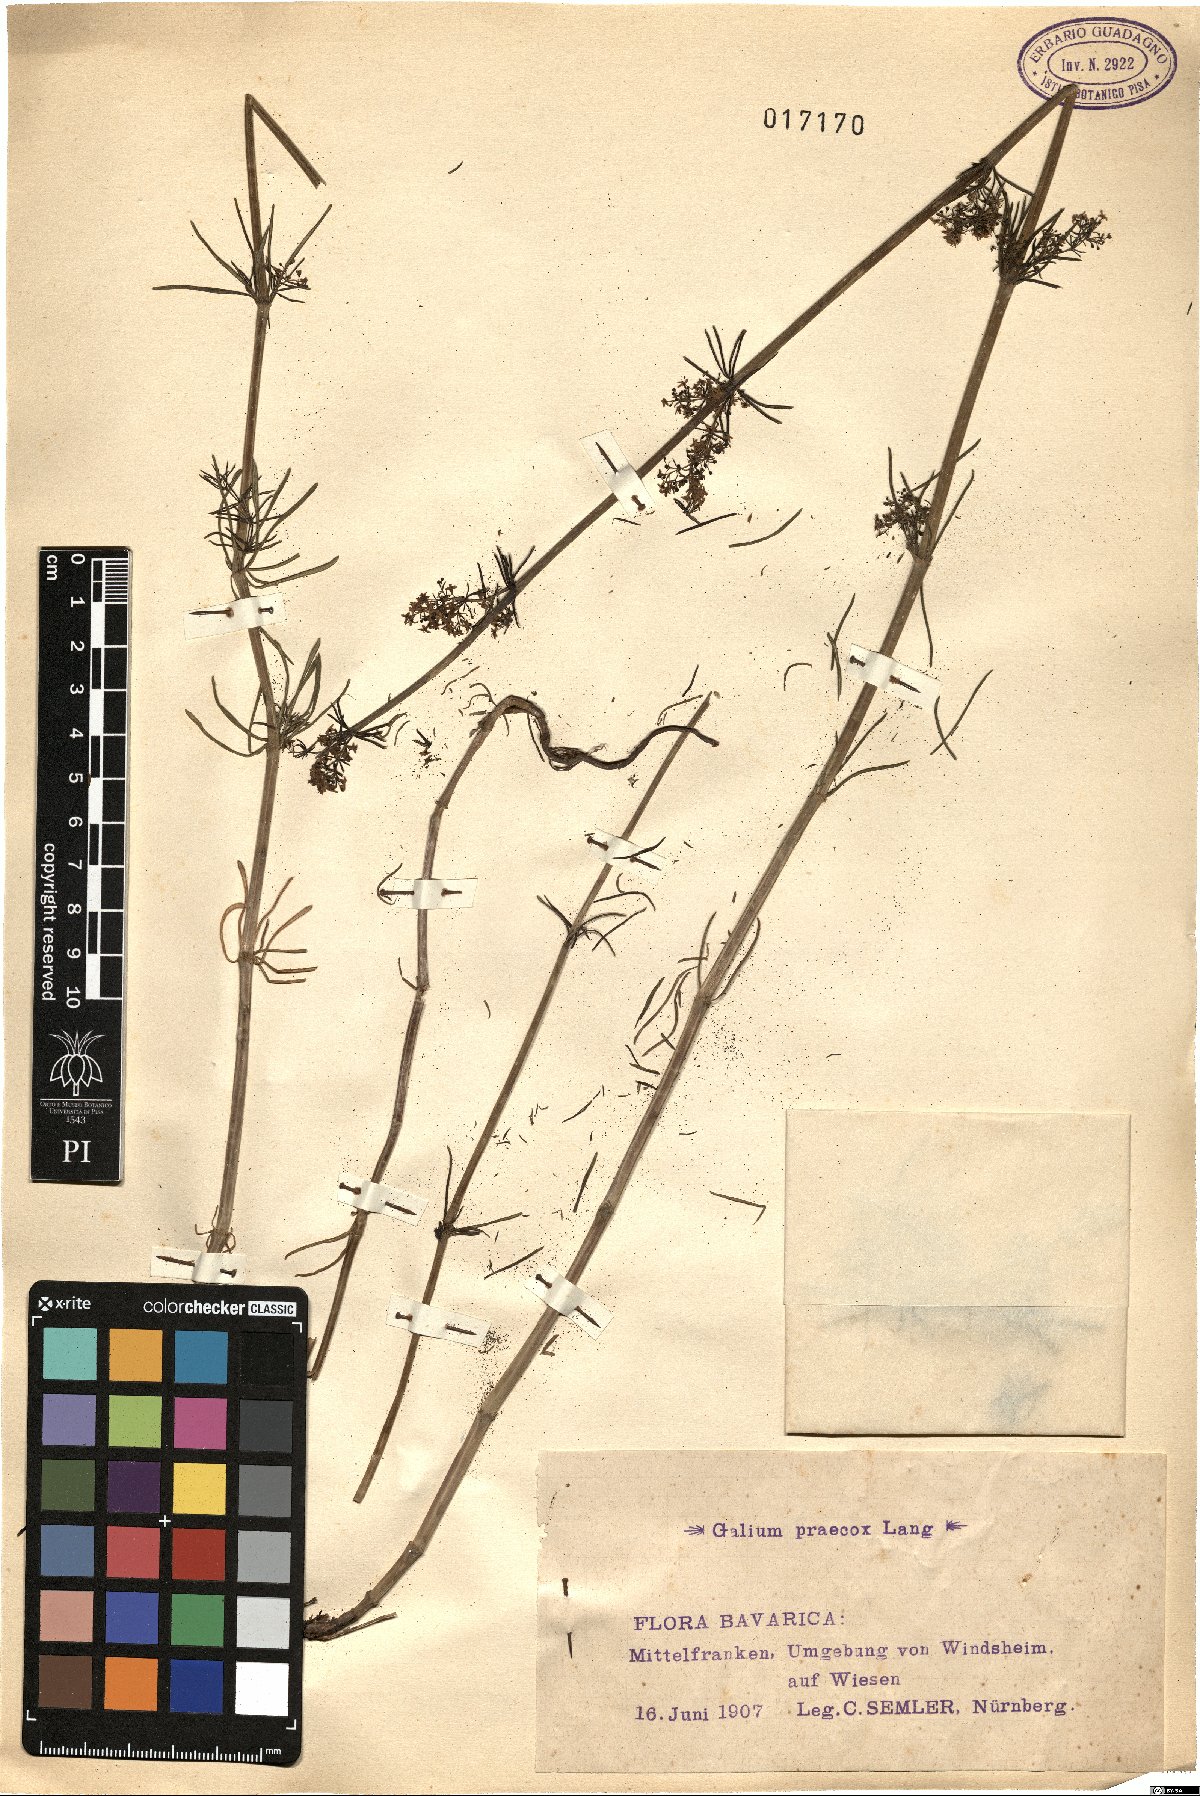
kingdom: Plantae
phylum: Tracheophyta
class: Magnoliopsida
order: Gentianales
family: Rubiaceae
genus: Galium
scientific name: Galium verum
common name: Lady's bedstraw
